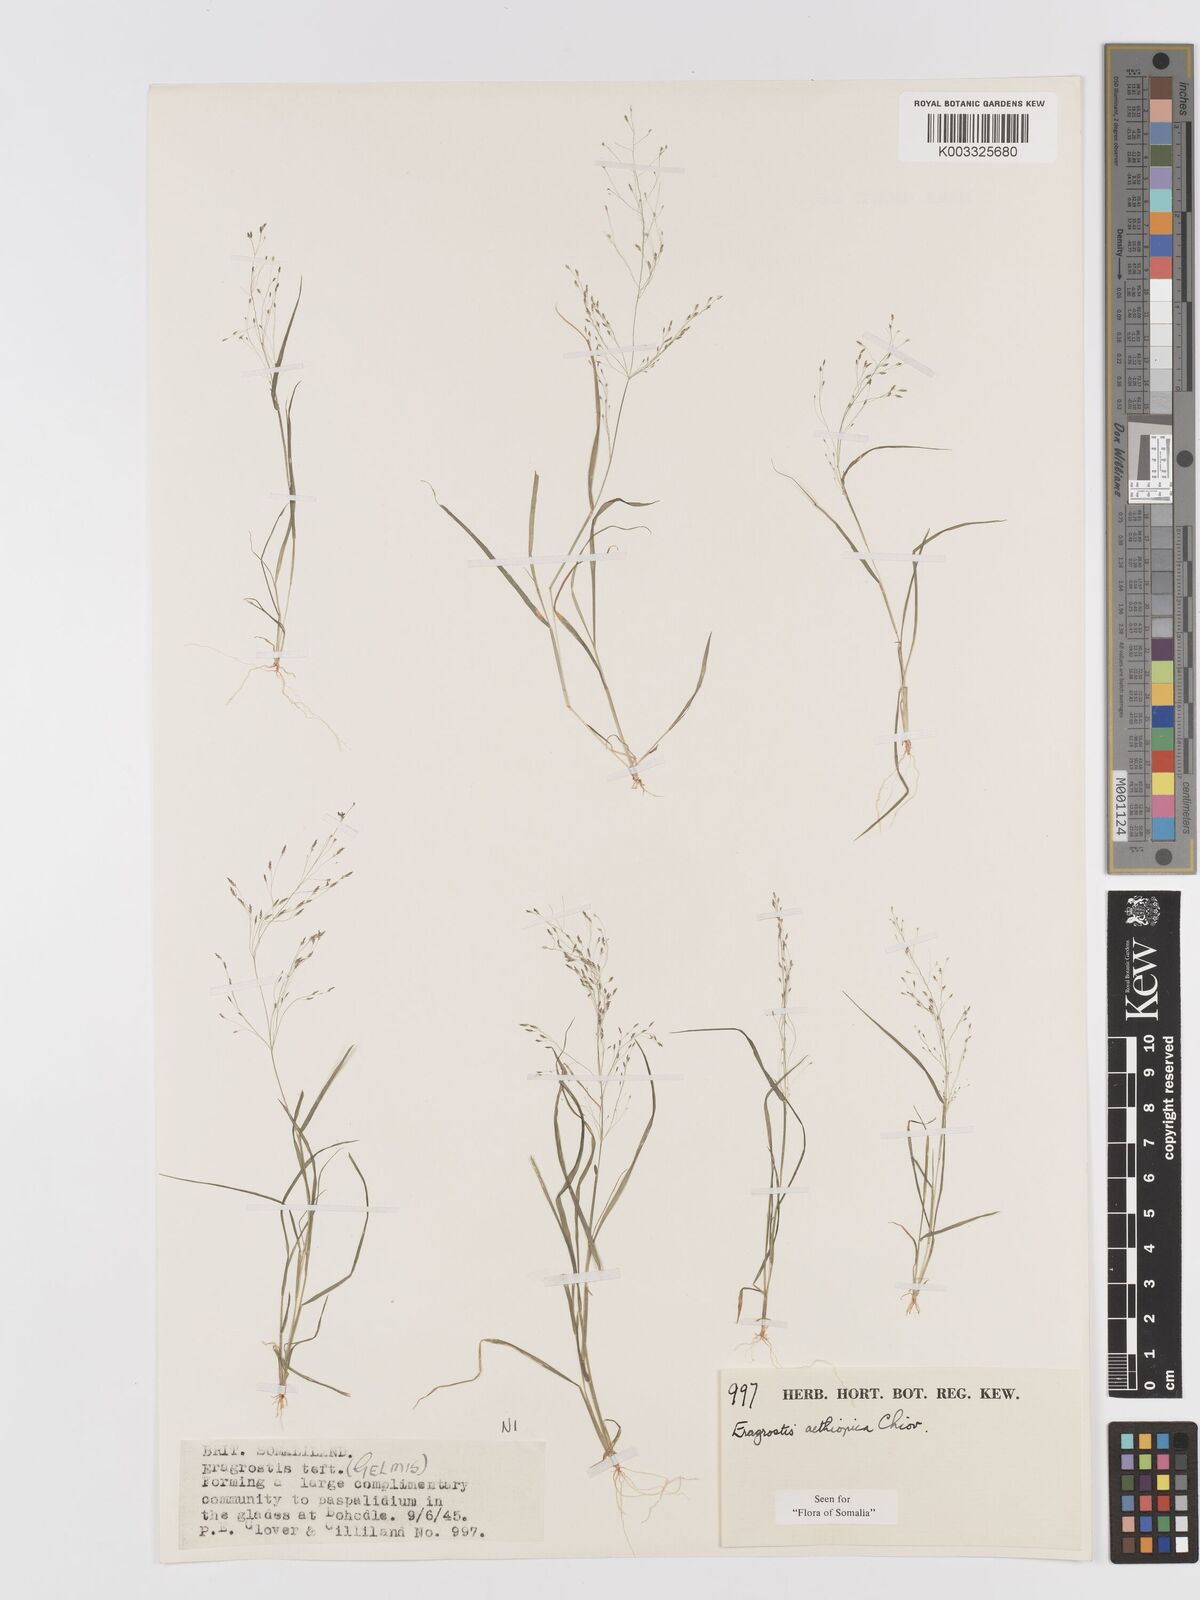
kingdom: Plantae
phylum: Tracheophyta
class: Liliopsida
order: Poales
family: Poaceae
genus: Eragrostis
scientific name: Eragrostis aethiopica
